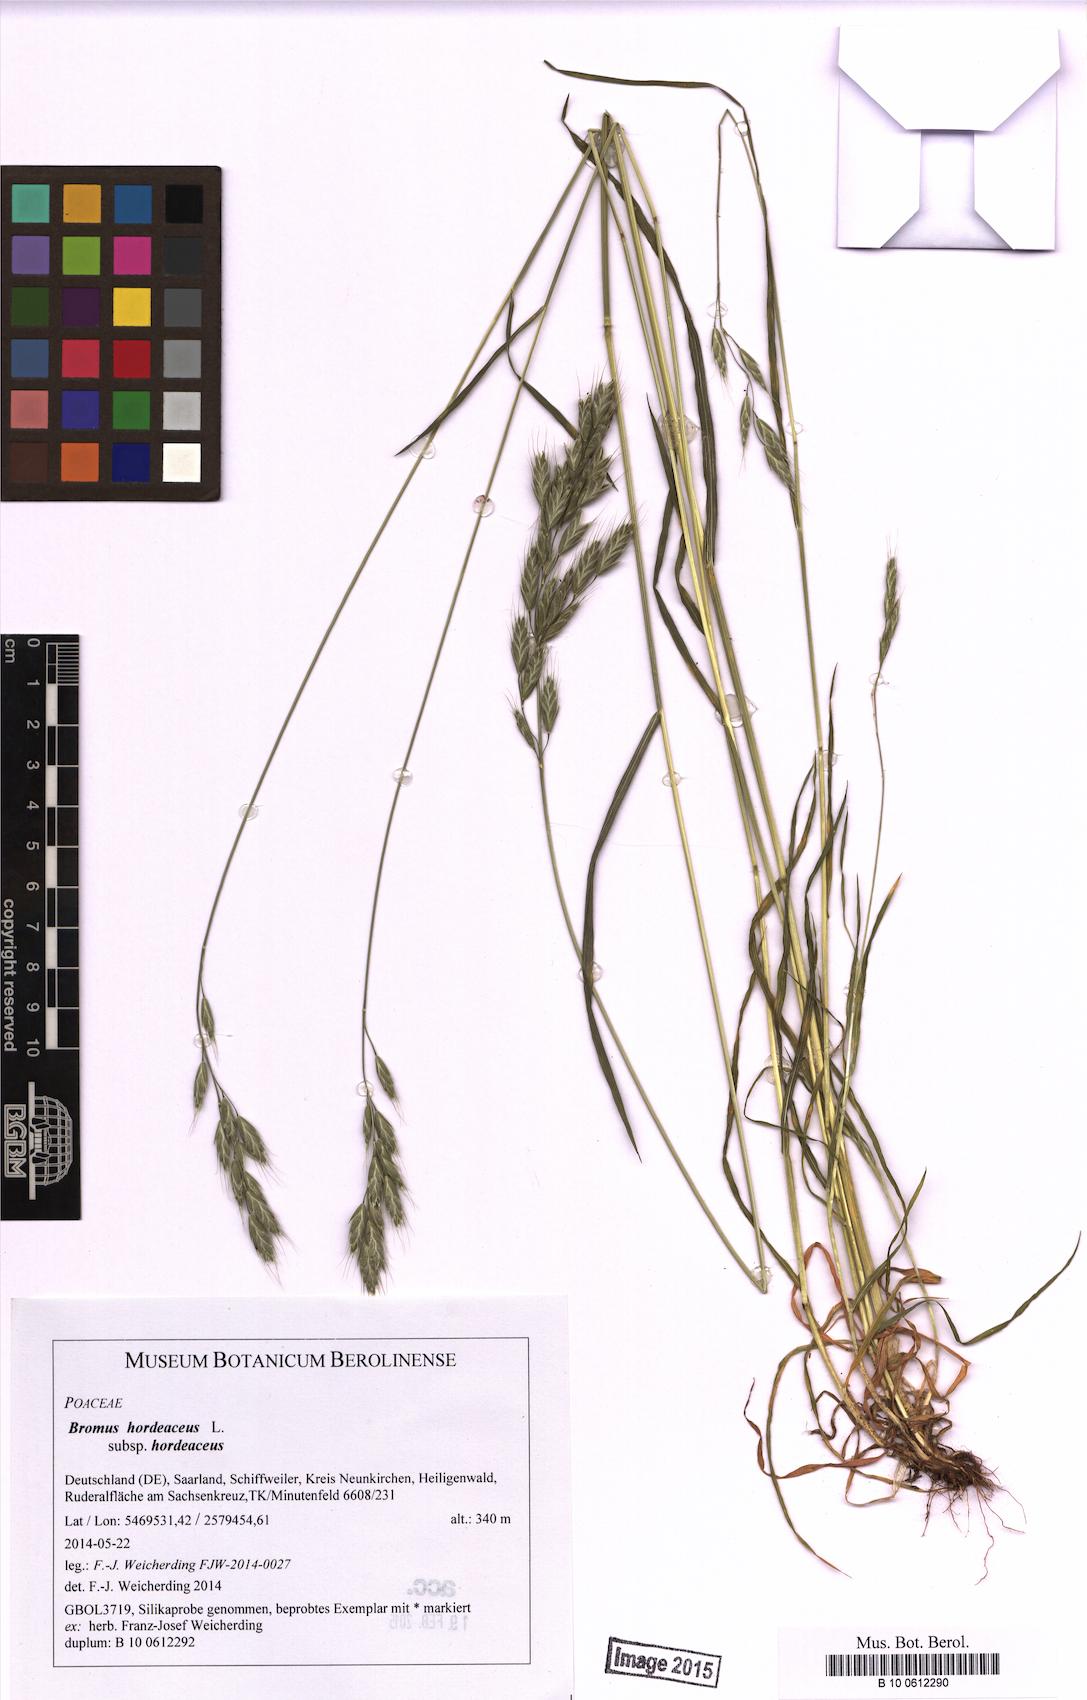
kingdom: Plantae
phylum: Tracheophyta
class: Liliopsida
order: Poales
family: Poaceae
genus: Bromus
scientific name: Bromus hordeaceus
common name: Soft brome
